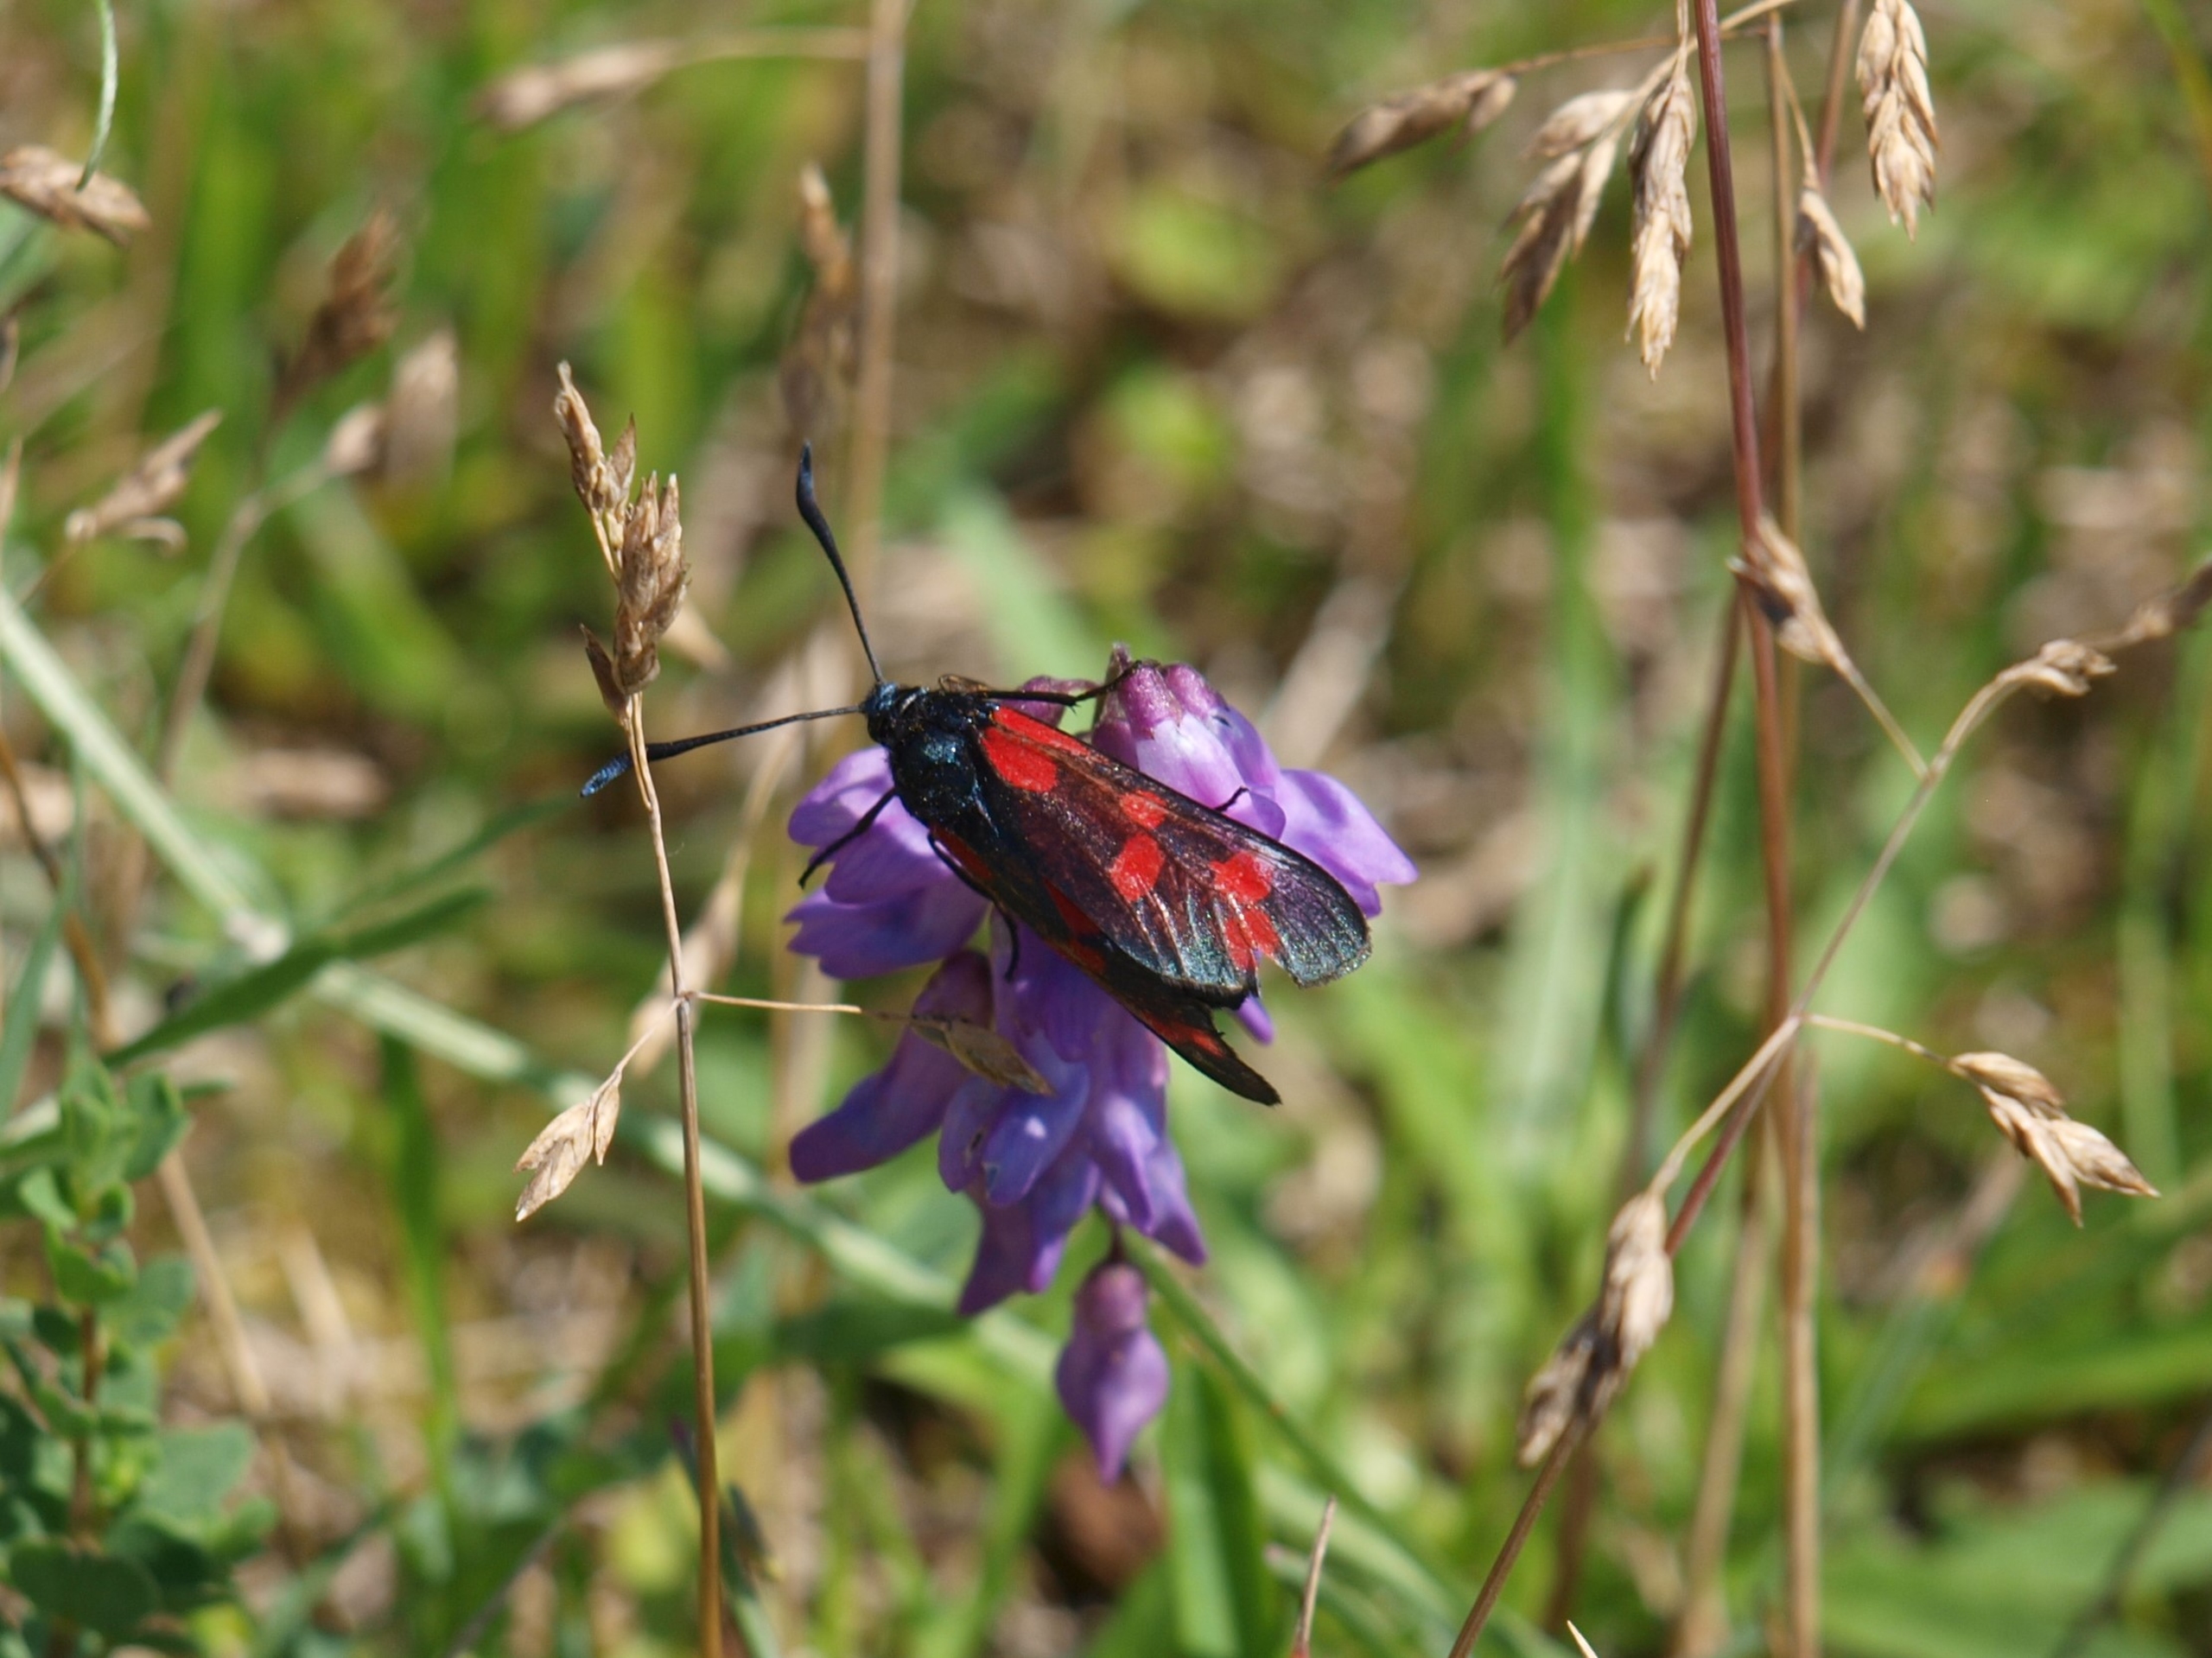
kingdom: Animalia
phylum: Arthropoda
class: Insecta
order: Lepidoptera
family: Zygaenidae
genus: Zygaena
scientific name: Zygaena filipendulae
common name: Seksplettet køllesværmer
